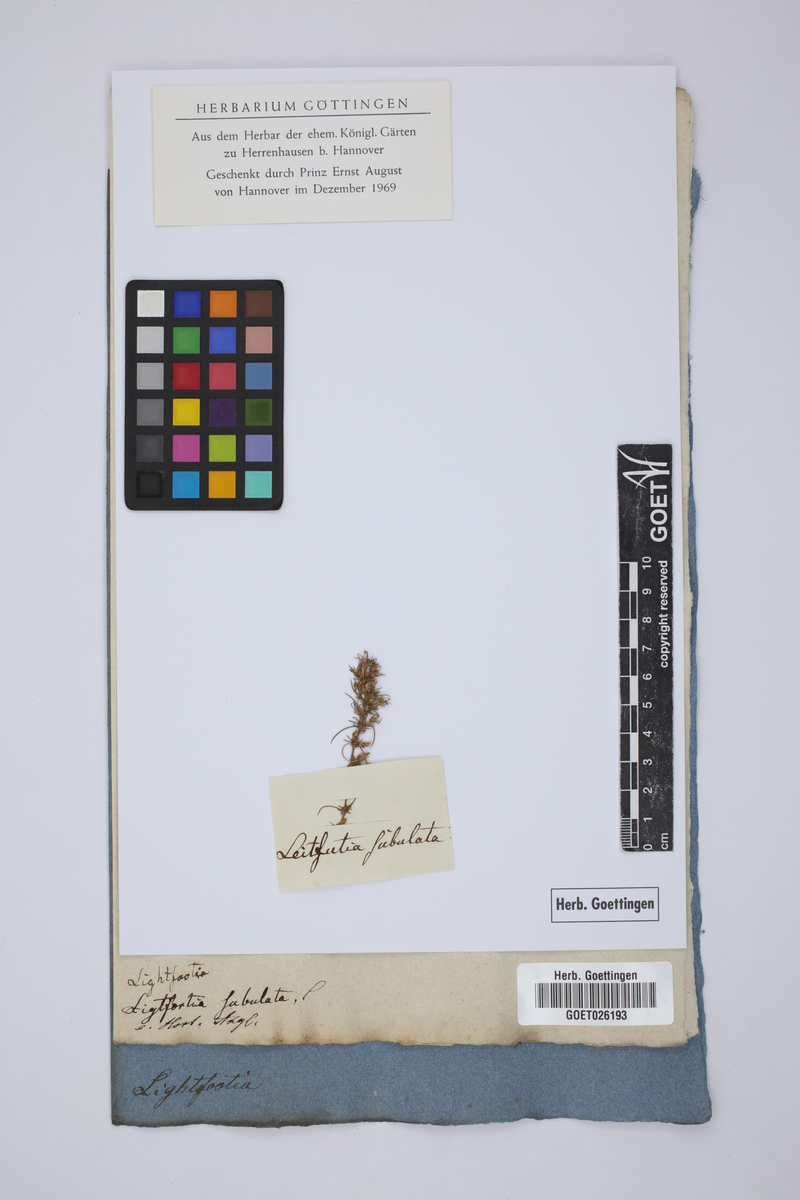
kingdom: Plantae
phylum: Tracheophyta
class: Magnoliopsida
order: Asterales
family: Campanulaceae
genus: Wahlenbergia
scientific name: Wahlenbergia subulata
